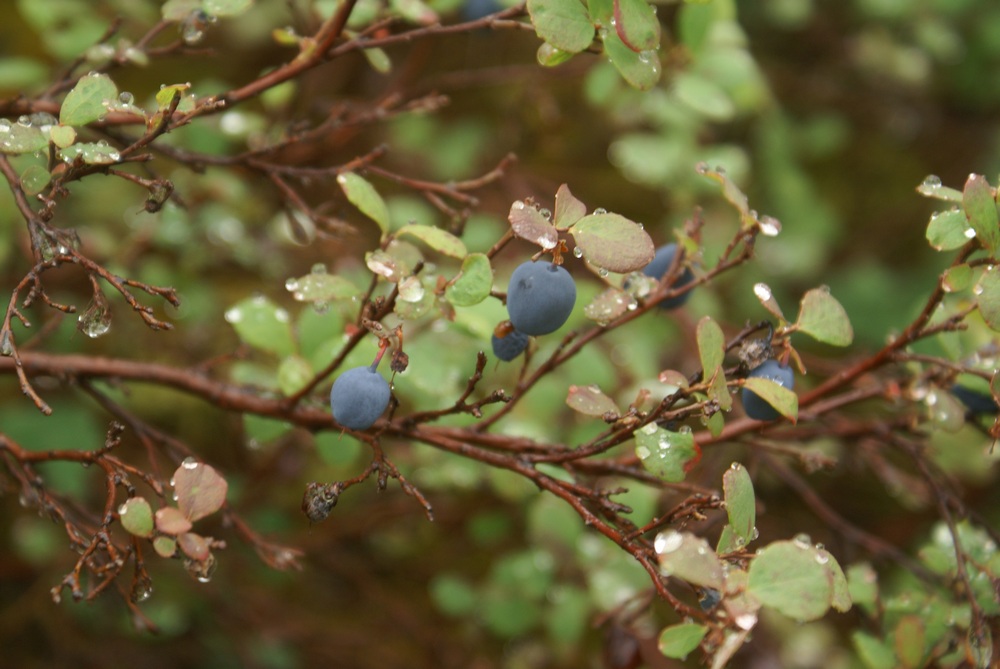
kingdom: Plantae
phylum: Tracheophyta
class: Magnoliopsida
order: Ericales
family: Ericaceae
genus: Vaccinium
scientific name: Vaccinium uliginosum
